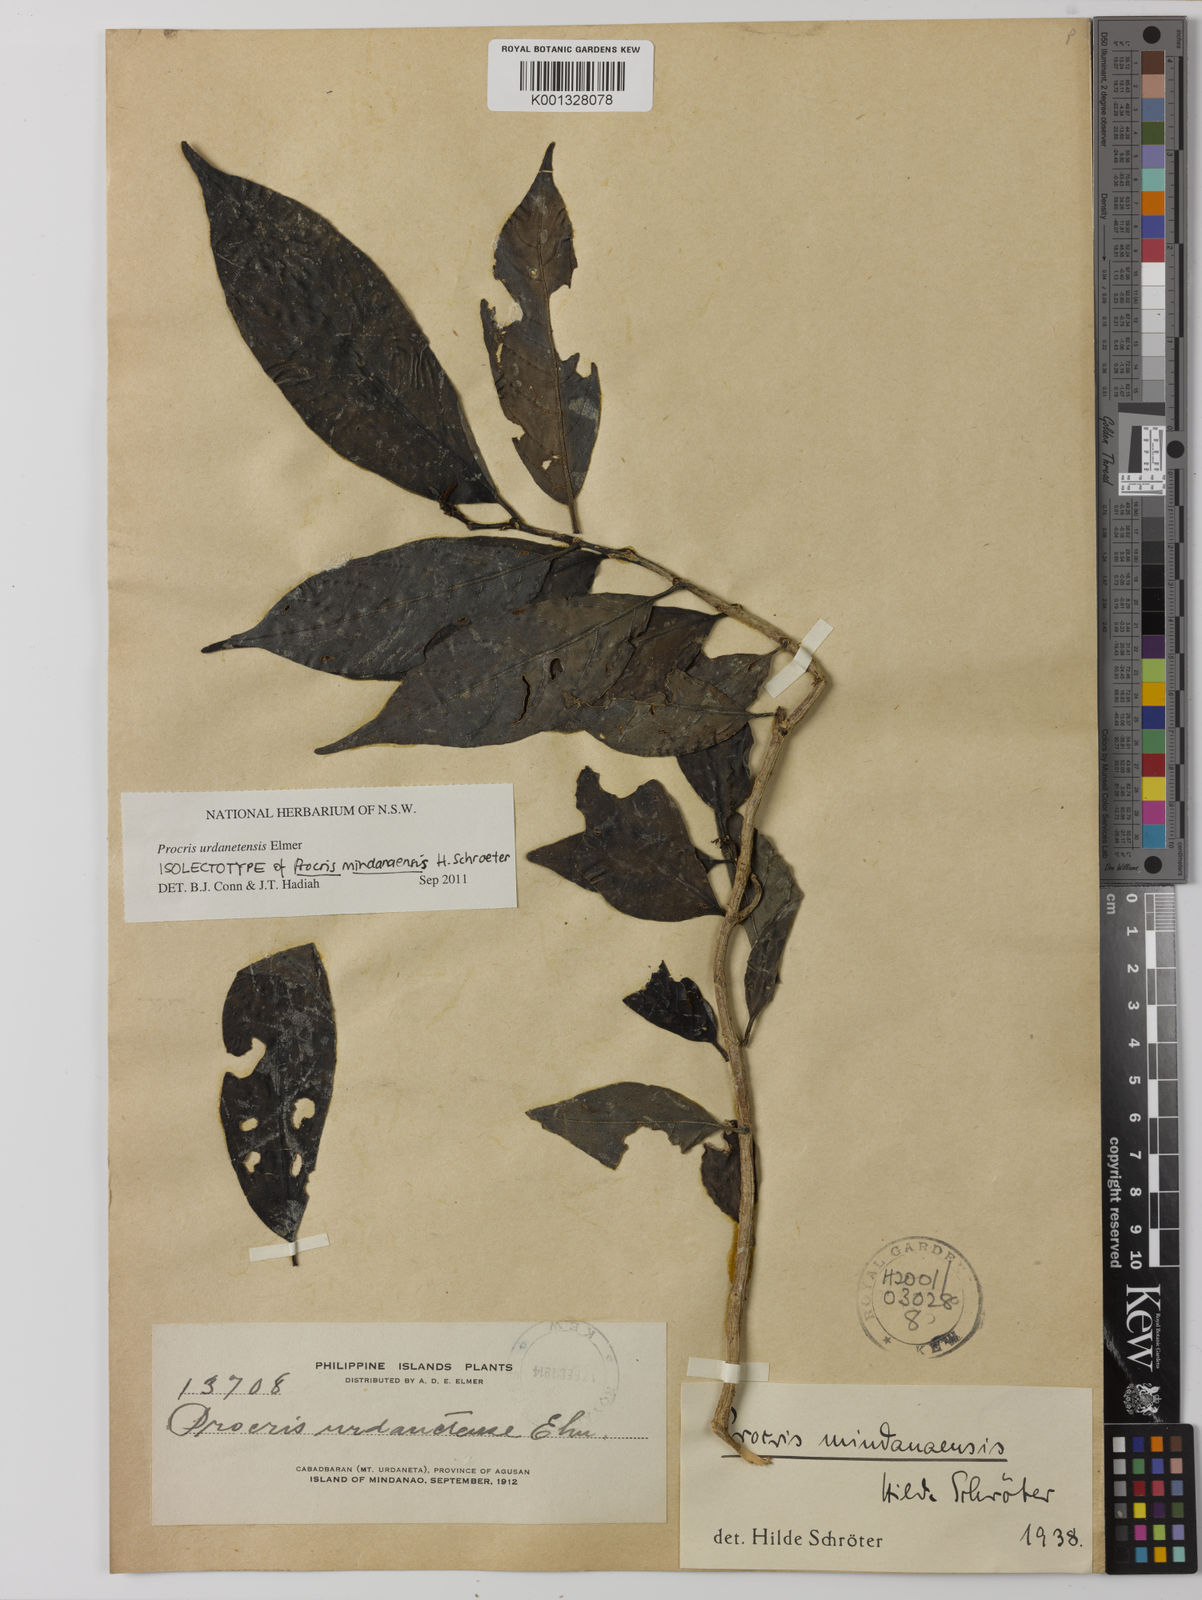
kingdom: Plantae
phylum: Tracheophyta
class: Magnoliopsida
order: Rosales
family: Urticaceae
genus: Procris
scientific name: Procris urdanetensis
